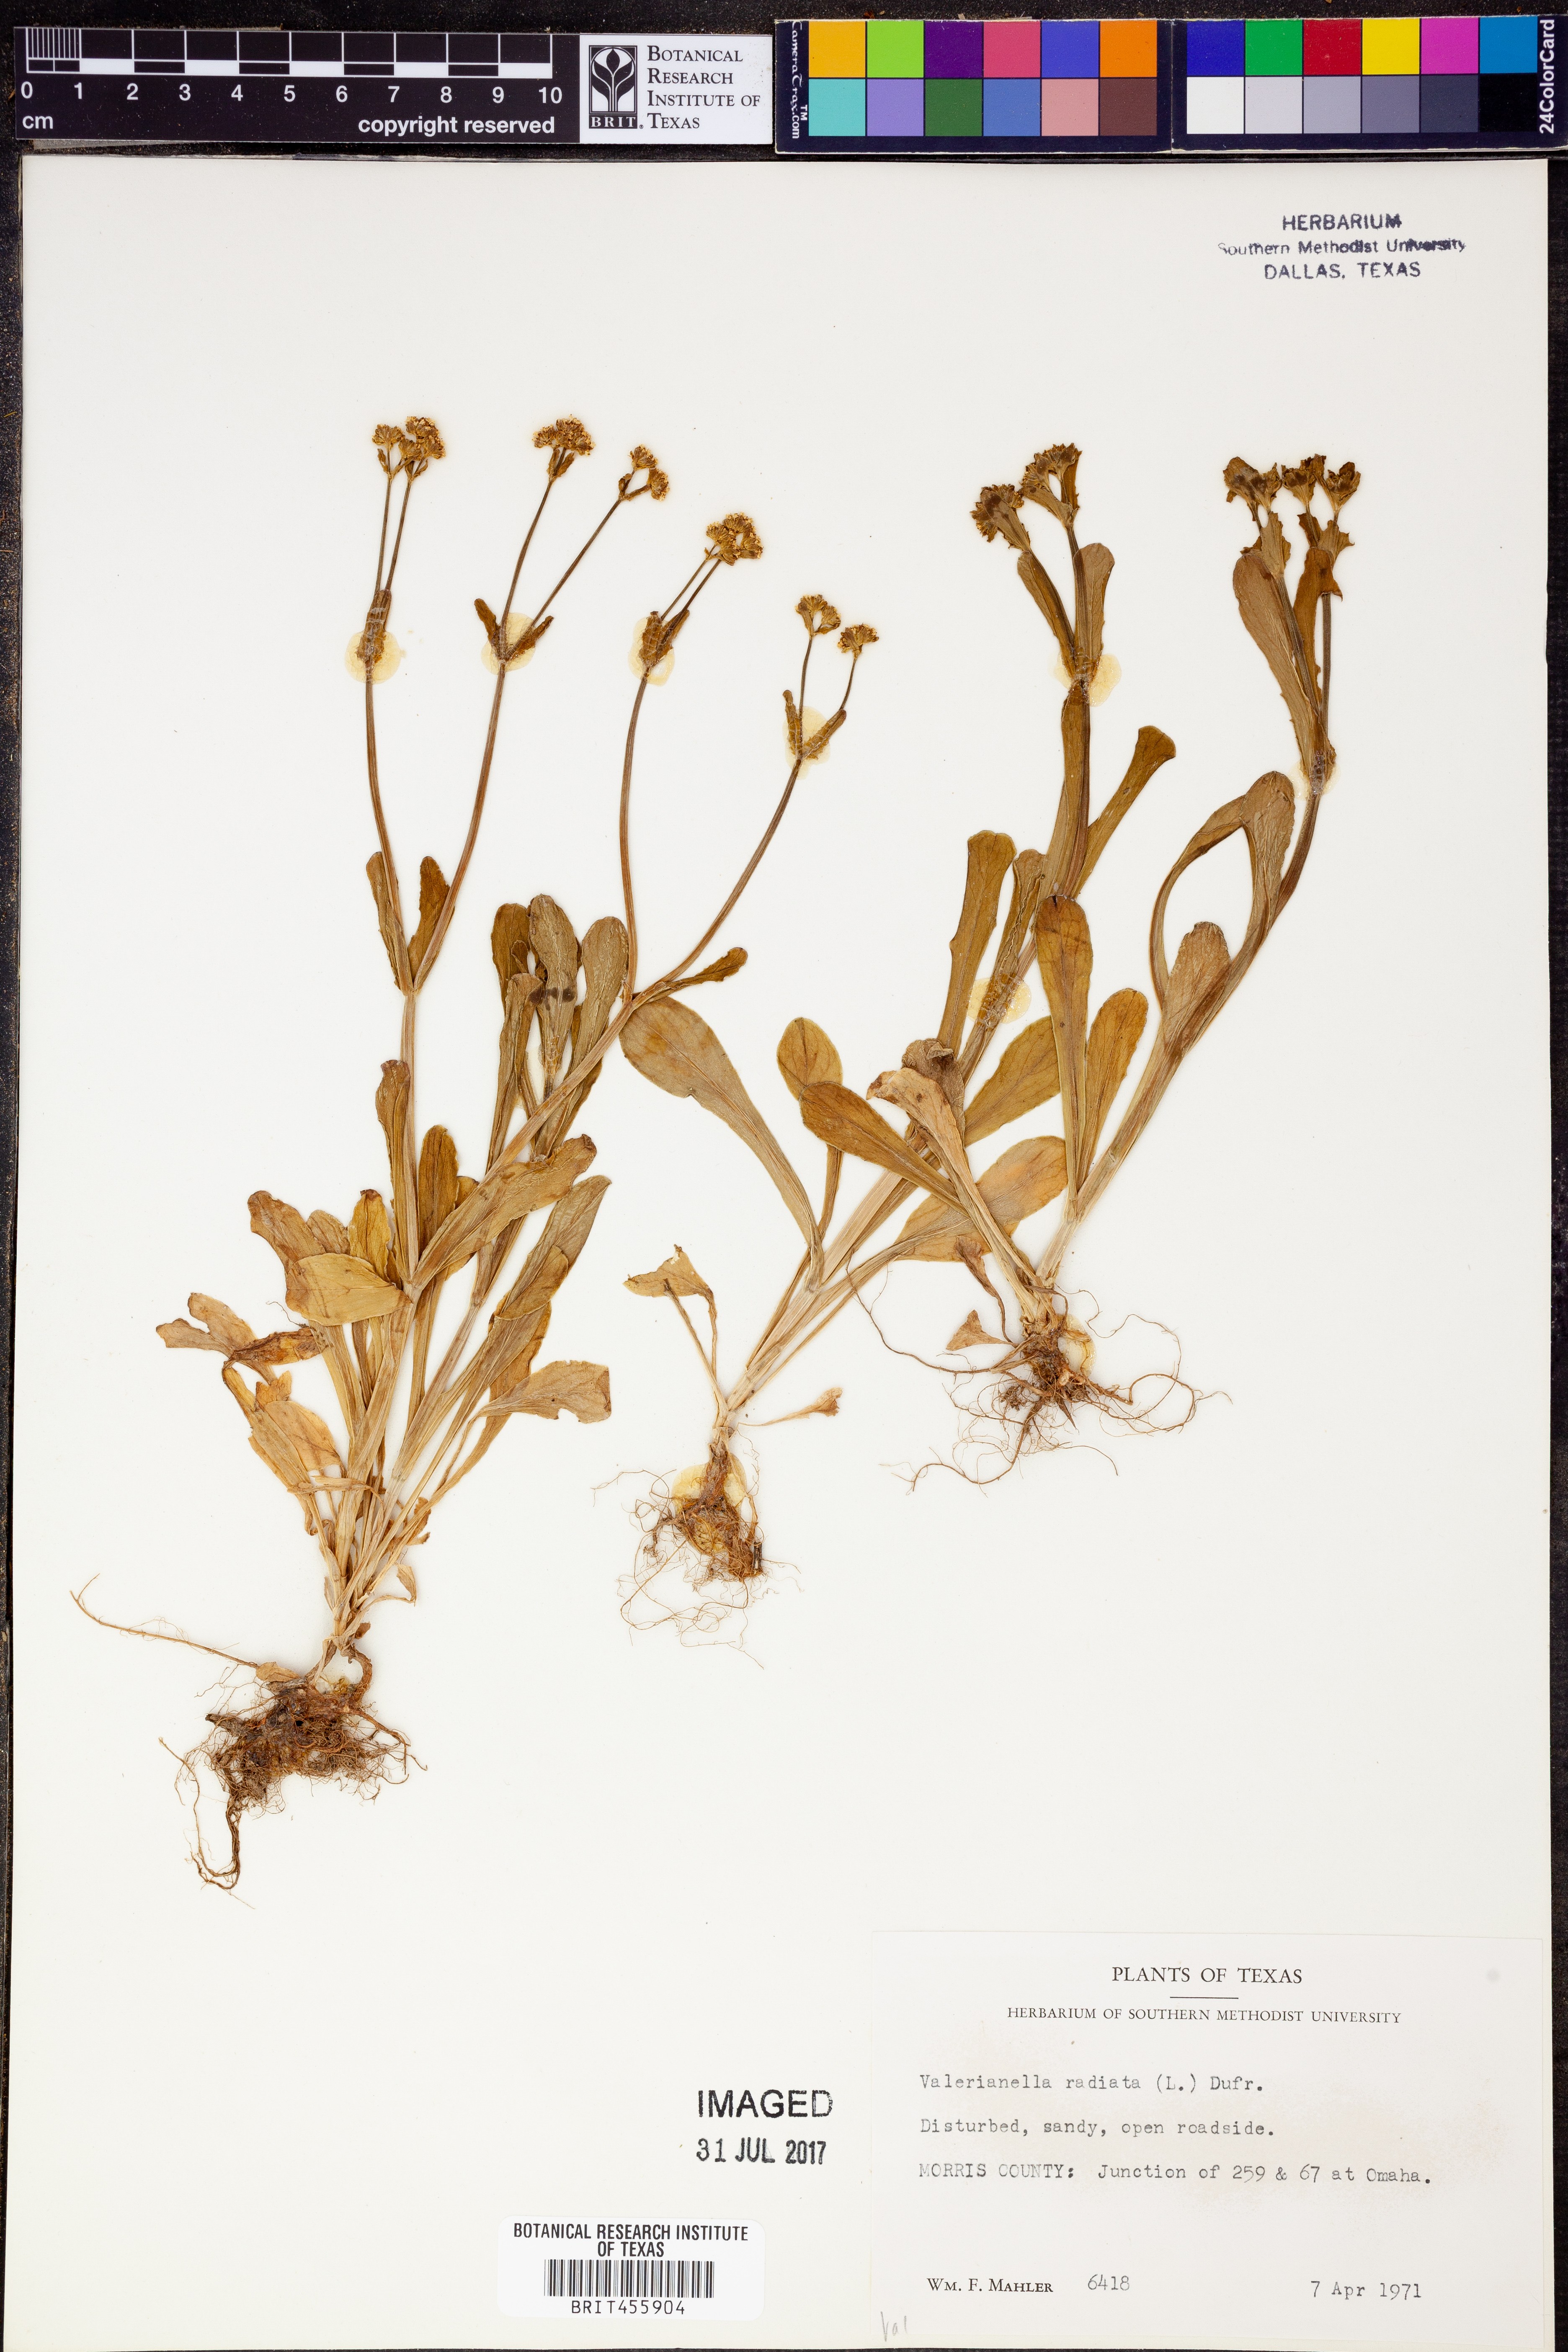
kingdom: Plantae
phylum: Tracheophyta
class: Magnoliopsida
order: Dipsacales
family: Caprifoliaceae
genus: Valerianella
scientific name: Valerianella radiata
